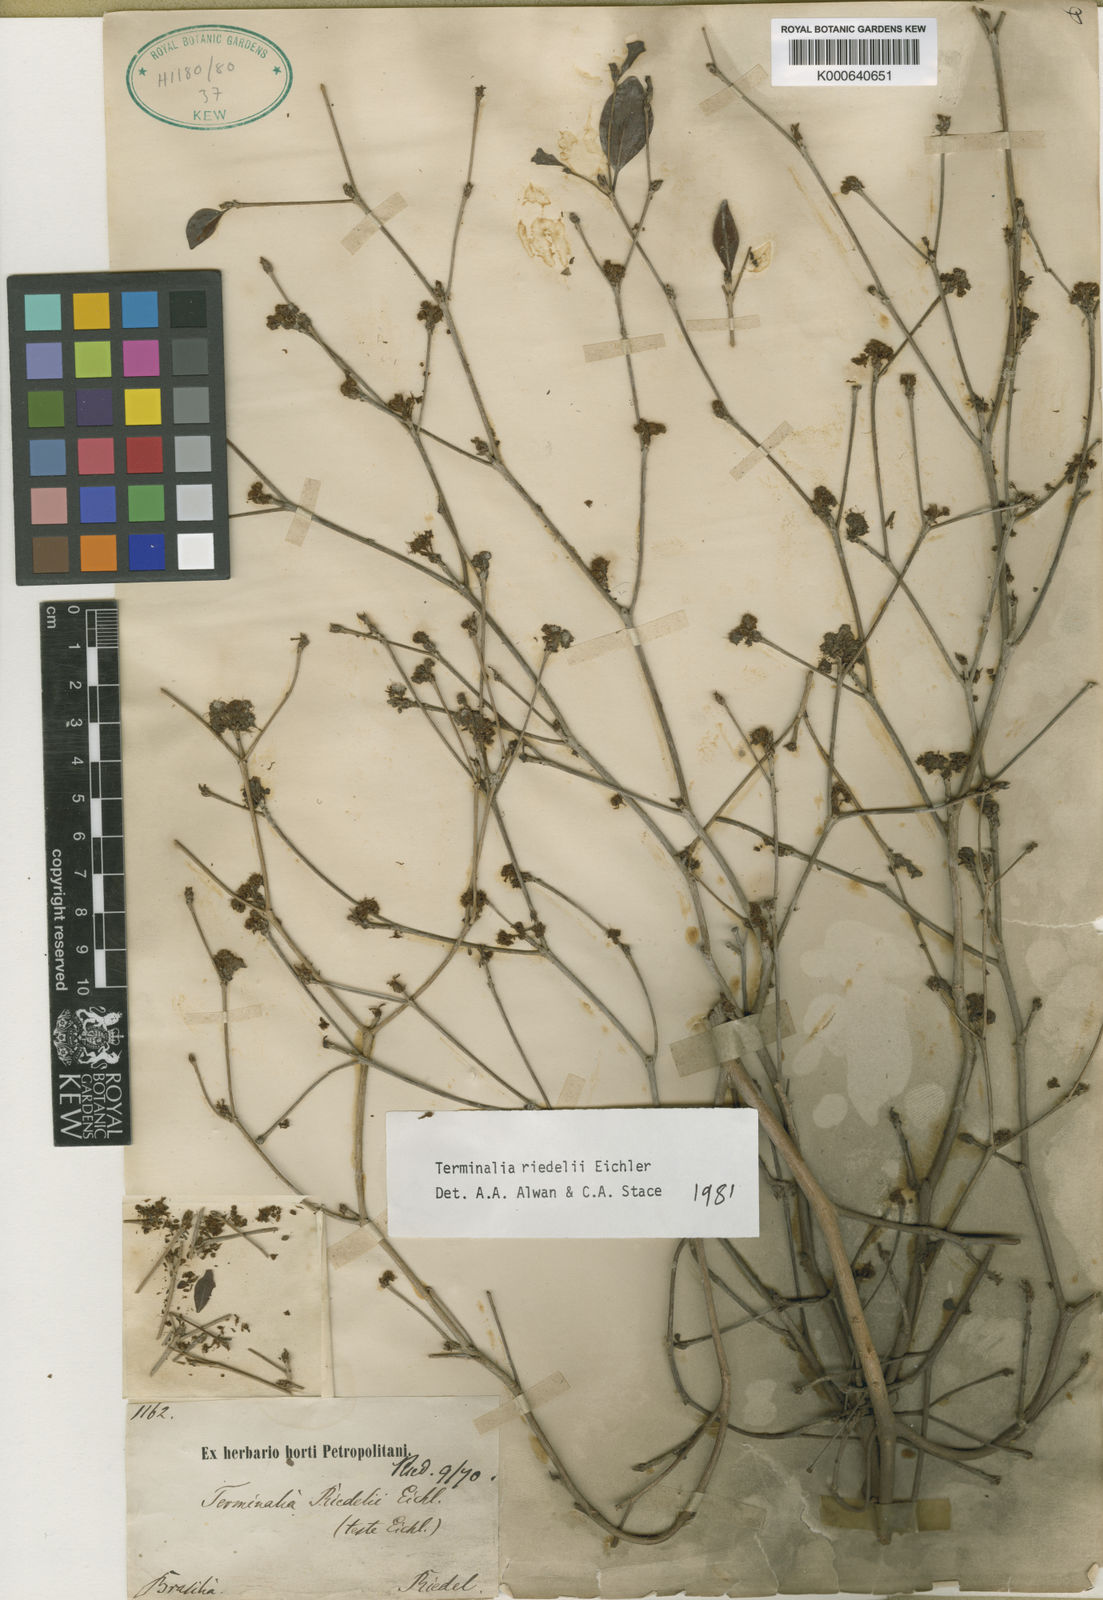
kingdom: Plantae
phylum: Tracheophyta
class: Magnoliopsida
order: Myrtales
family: Combretaceae
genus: Terminalia
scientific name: Terminalia riedelii
